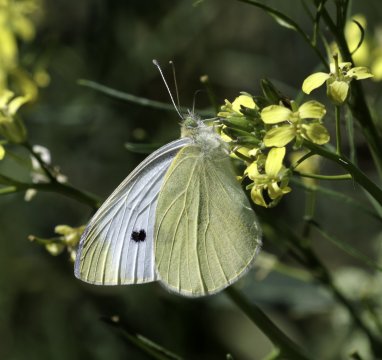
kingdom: Animalia
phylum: Arthropoda
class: Insecta
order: Lepidoptera
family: Pieridae
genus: Pieris
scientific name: Pieris rapae
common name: Cabbage White
